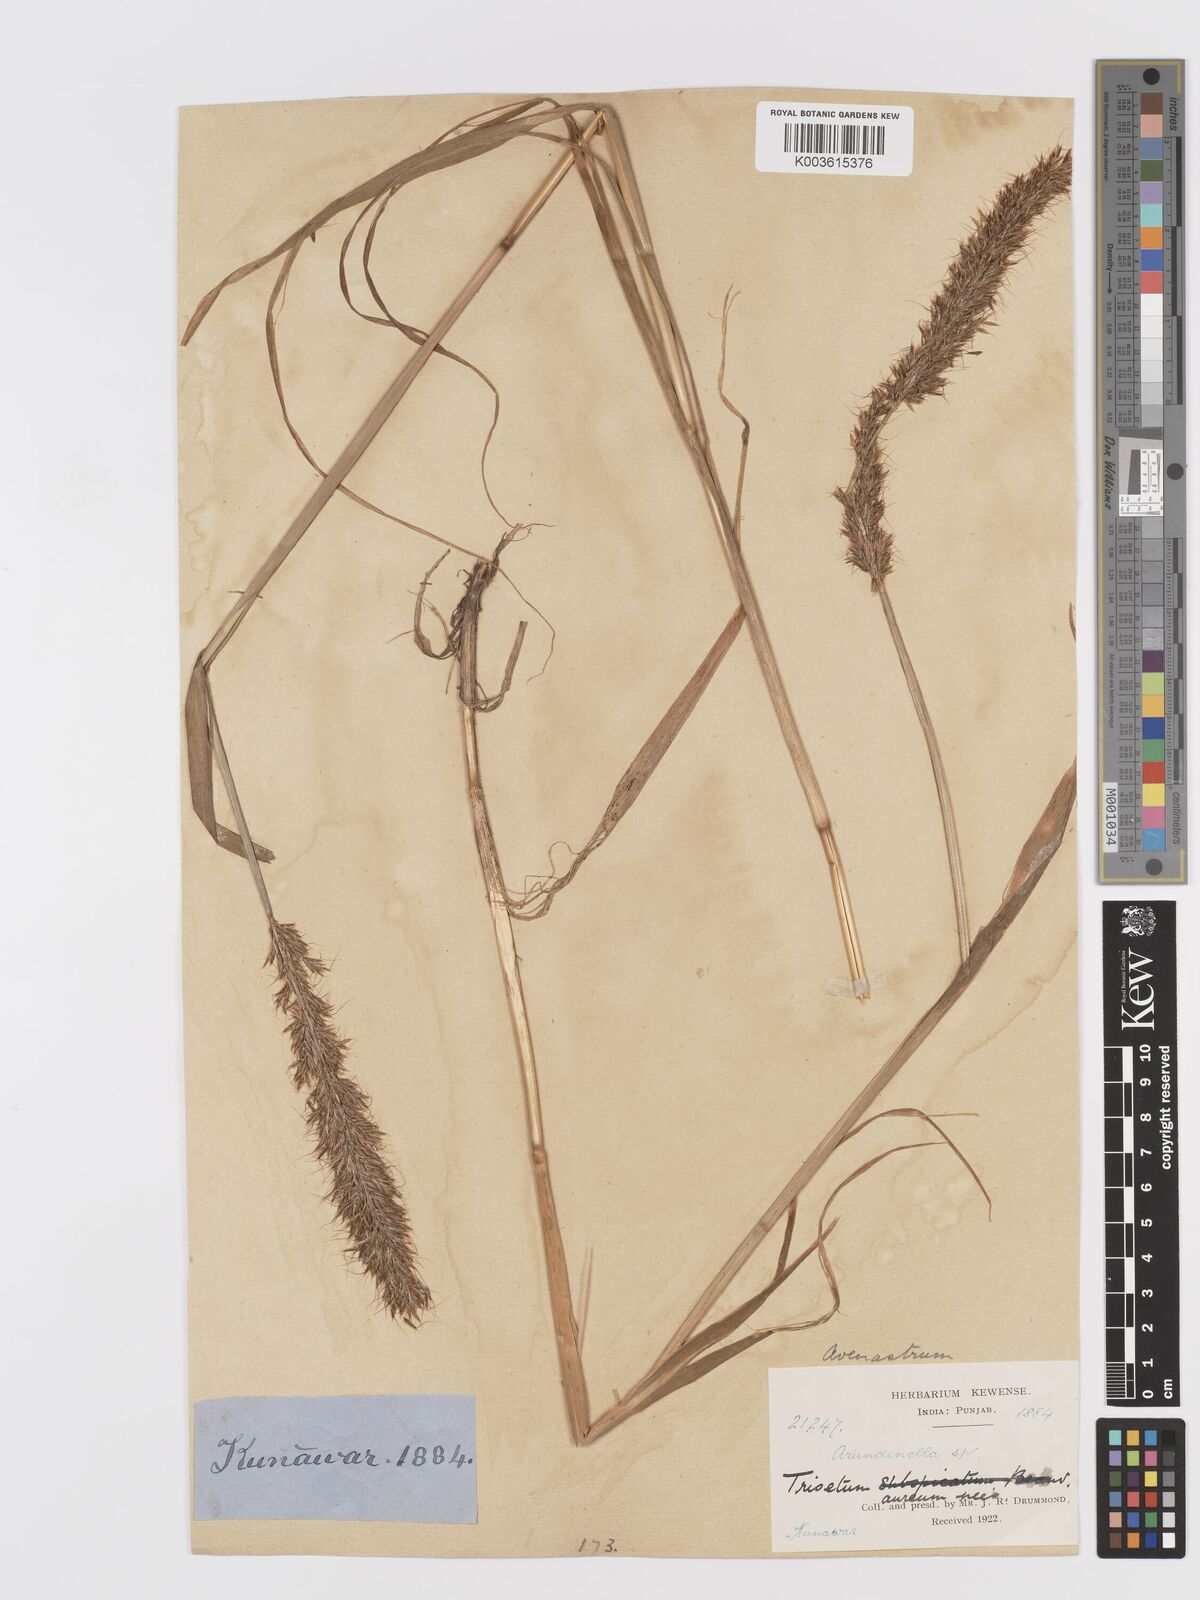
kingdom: Plantae
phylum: Tracheophyta
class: Liliopsida
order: Poales
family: Poaceae
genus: Sibirotrisetum
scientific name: Sibirotrisetum aeneum
